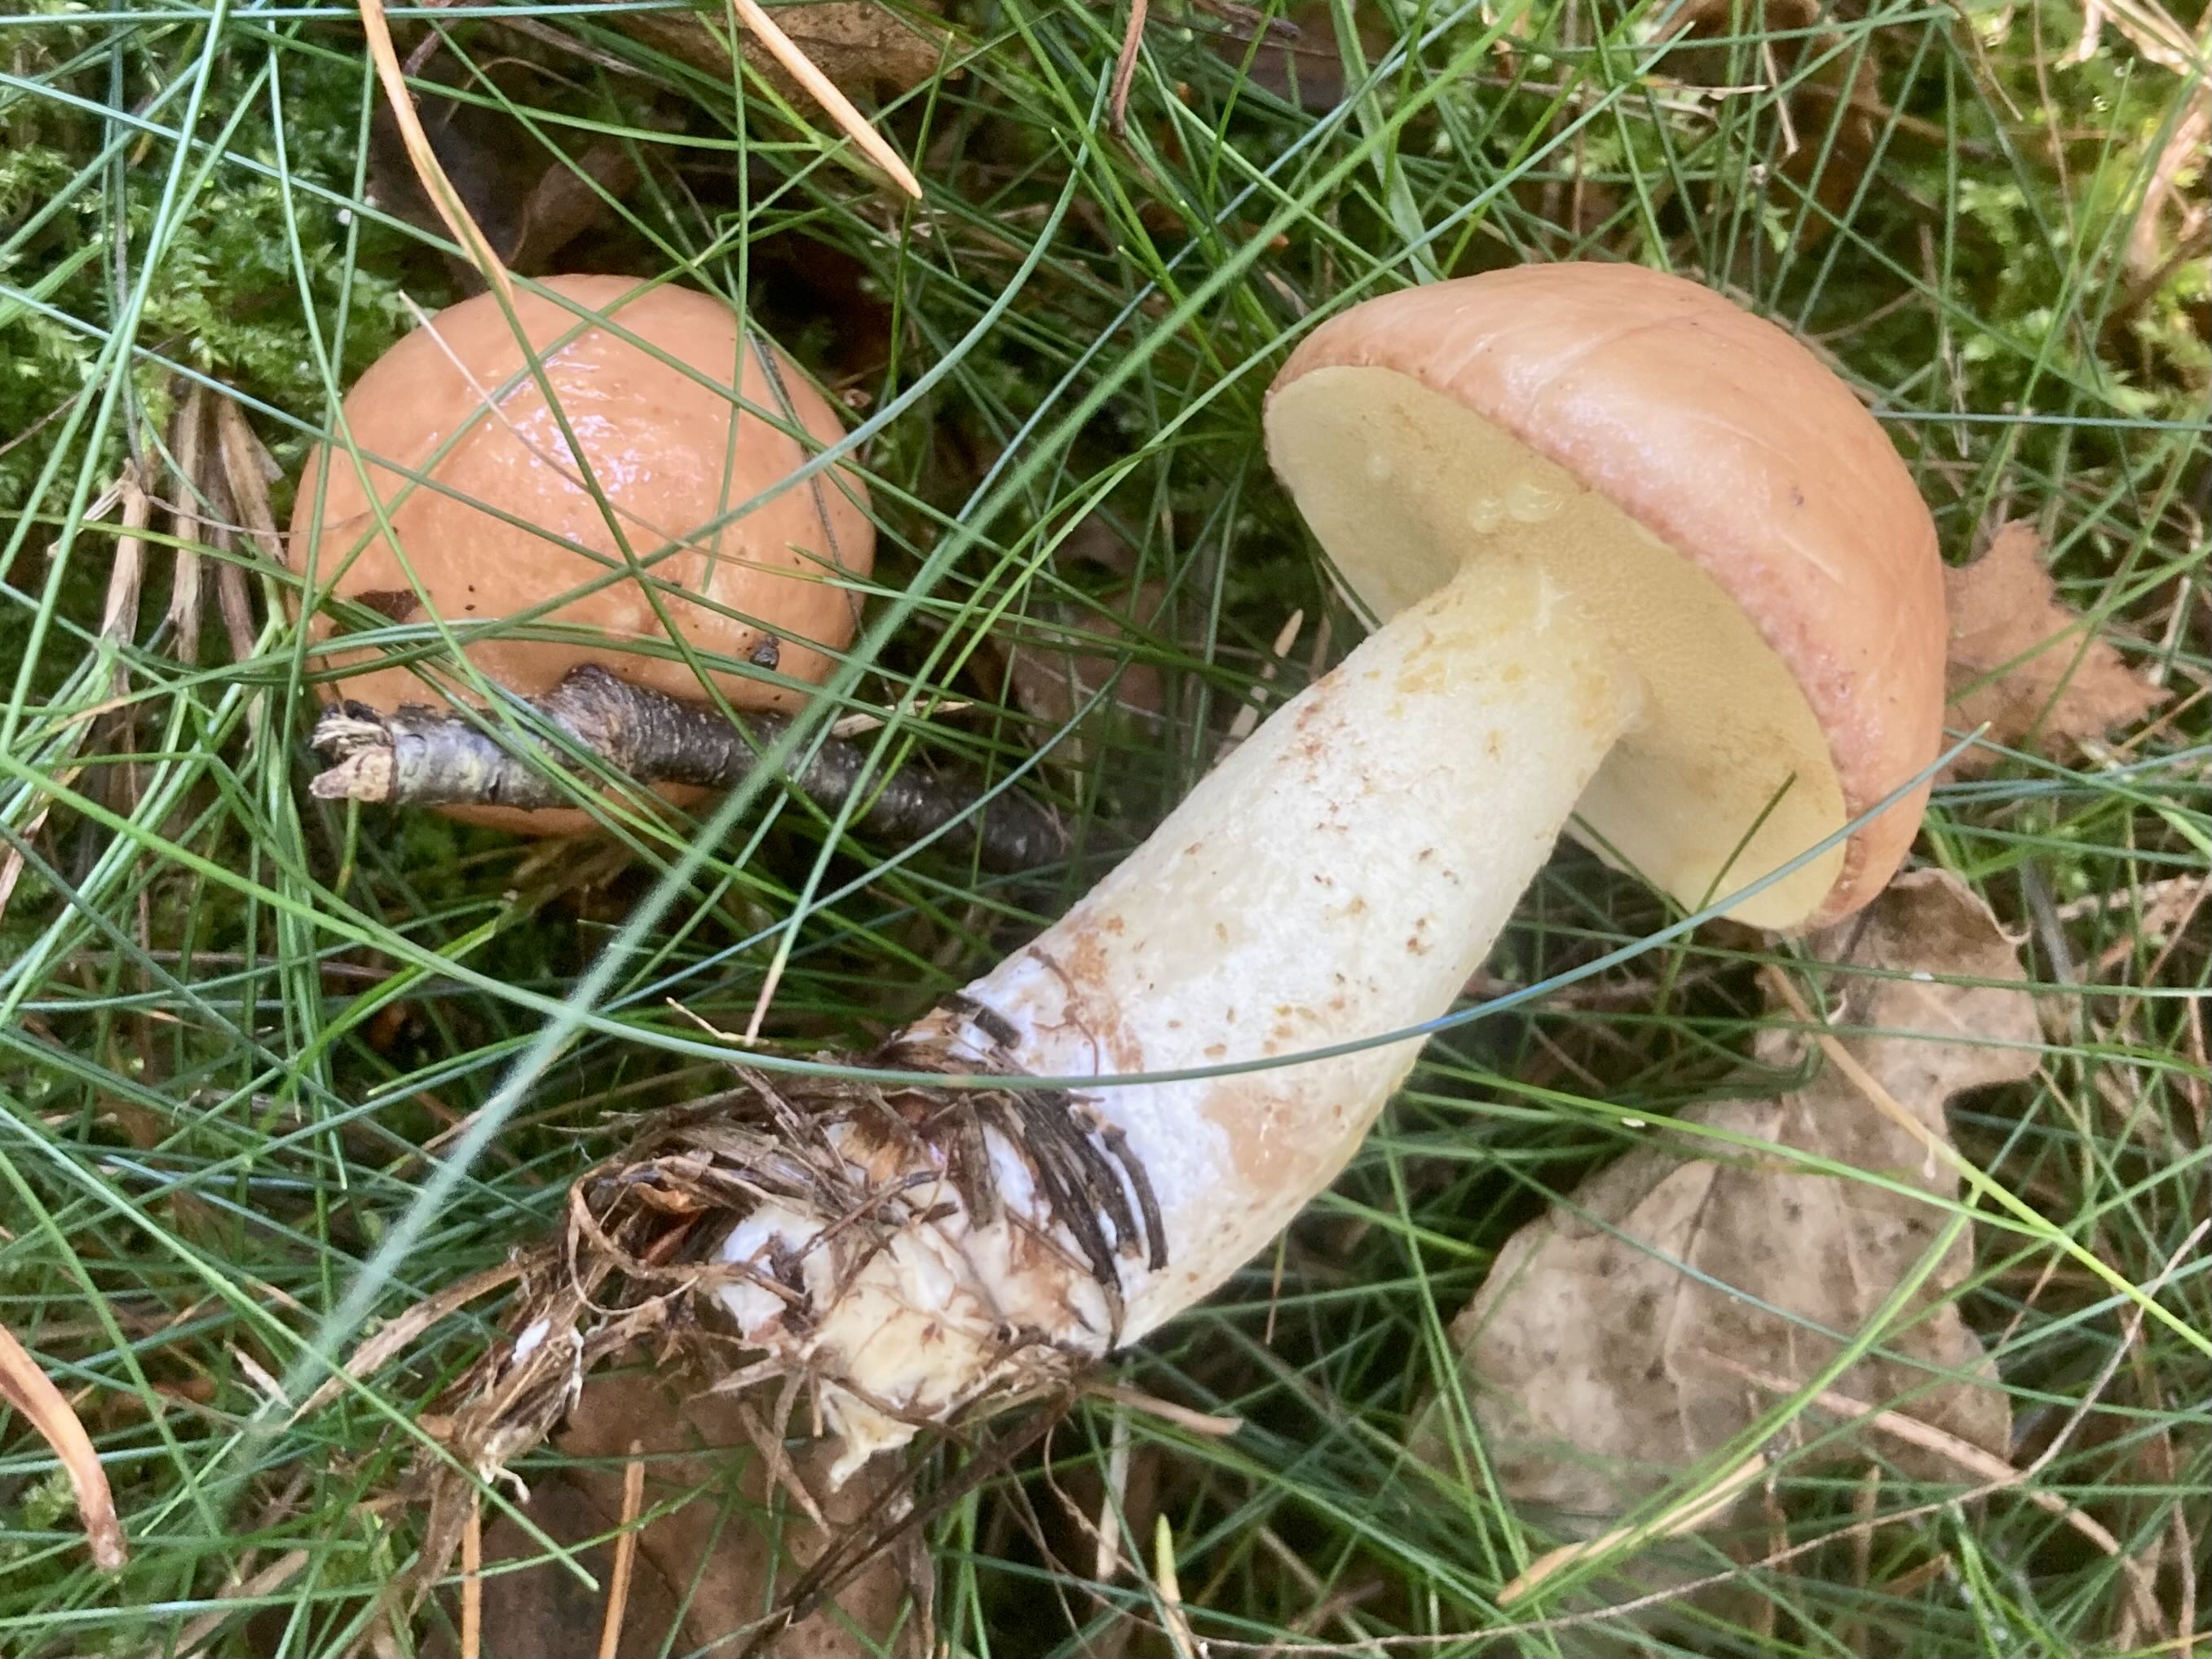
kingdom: Fungi
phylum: Basidiomycota
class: Agaricomycetes
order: Boletales
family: Suillaceae
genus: Suillus
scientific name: Suillus granulatus
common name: kornet slimrørhat
